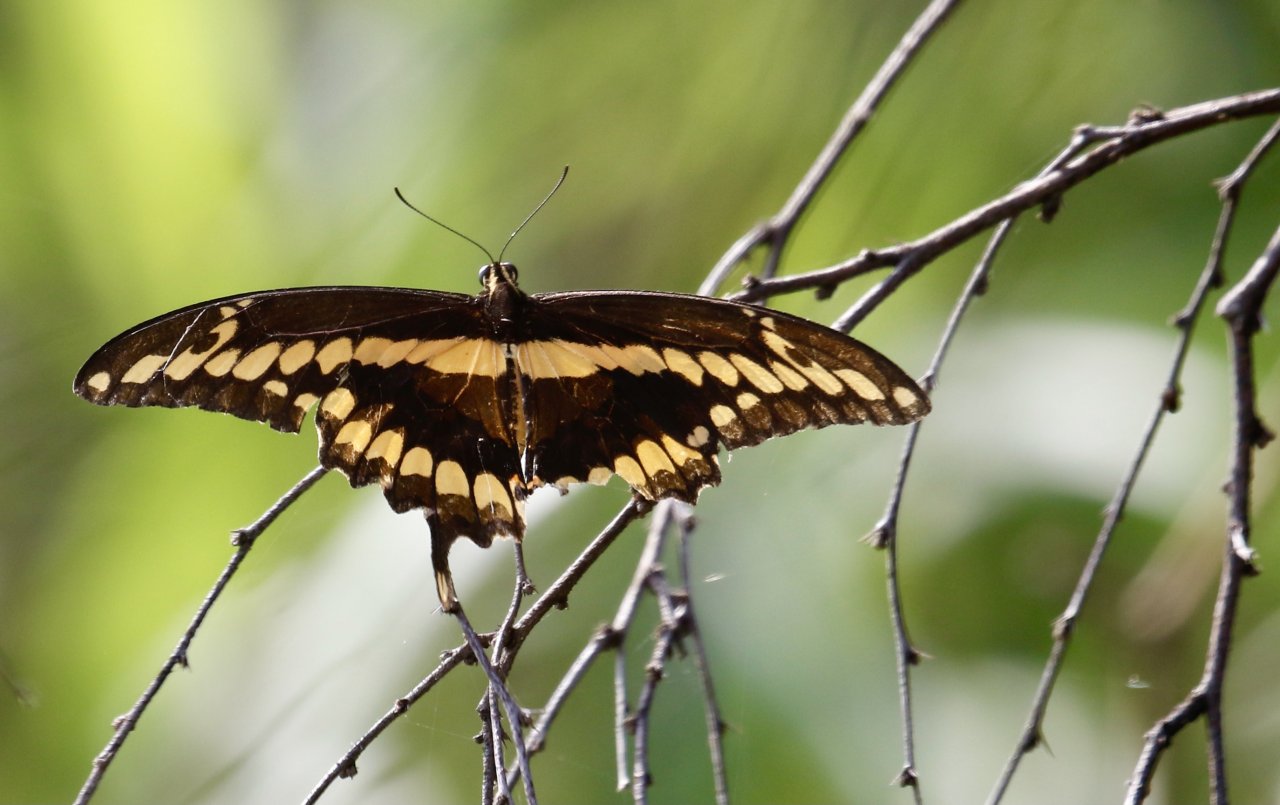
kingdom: Animalia
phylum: Arthropoda
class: Insecta
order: Lepidoptera
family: Papilionidae
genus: Papilio
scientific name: Papilio rumiko
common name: Western Giant Swallowtail
